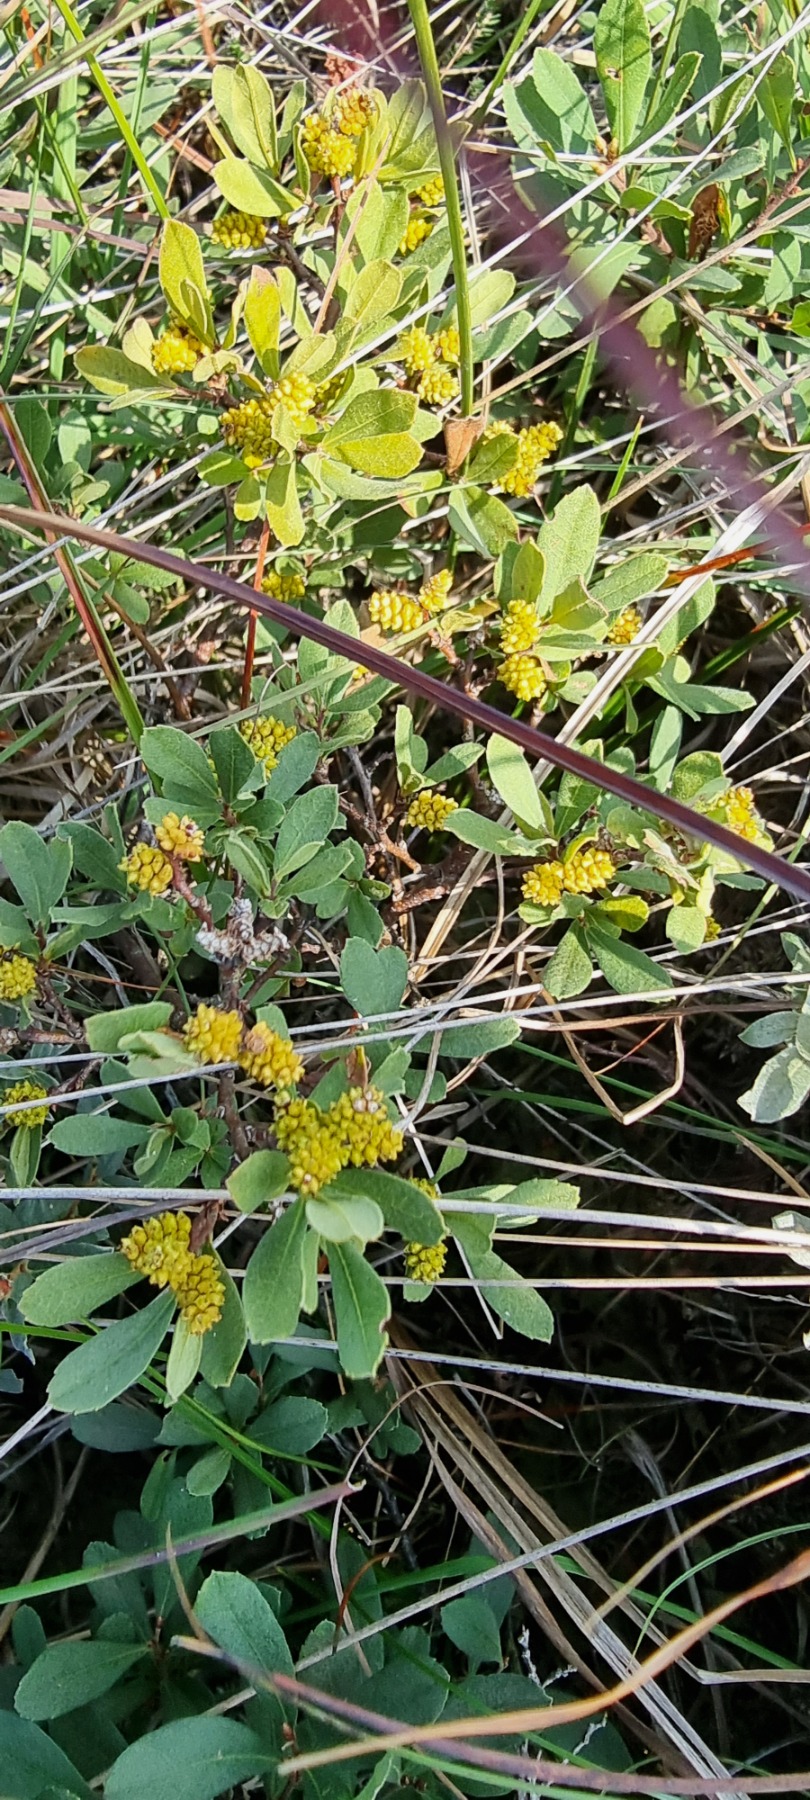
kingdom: Plantae
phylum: Tracheophyta
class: Magnoliopsida
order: Fagales
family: Myricaceae
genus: Myrica
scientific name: Myrica gale
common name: Pors
